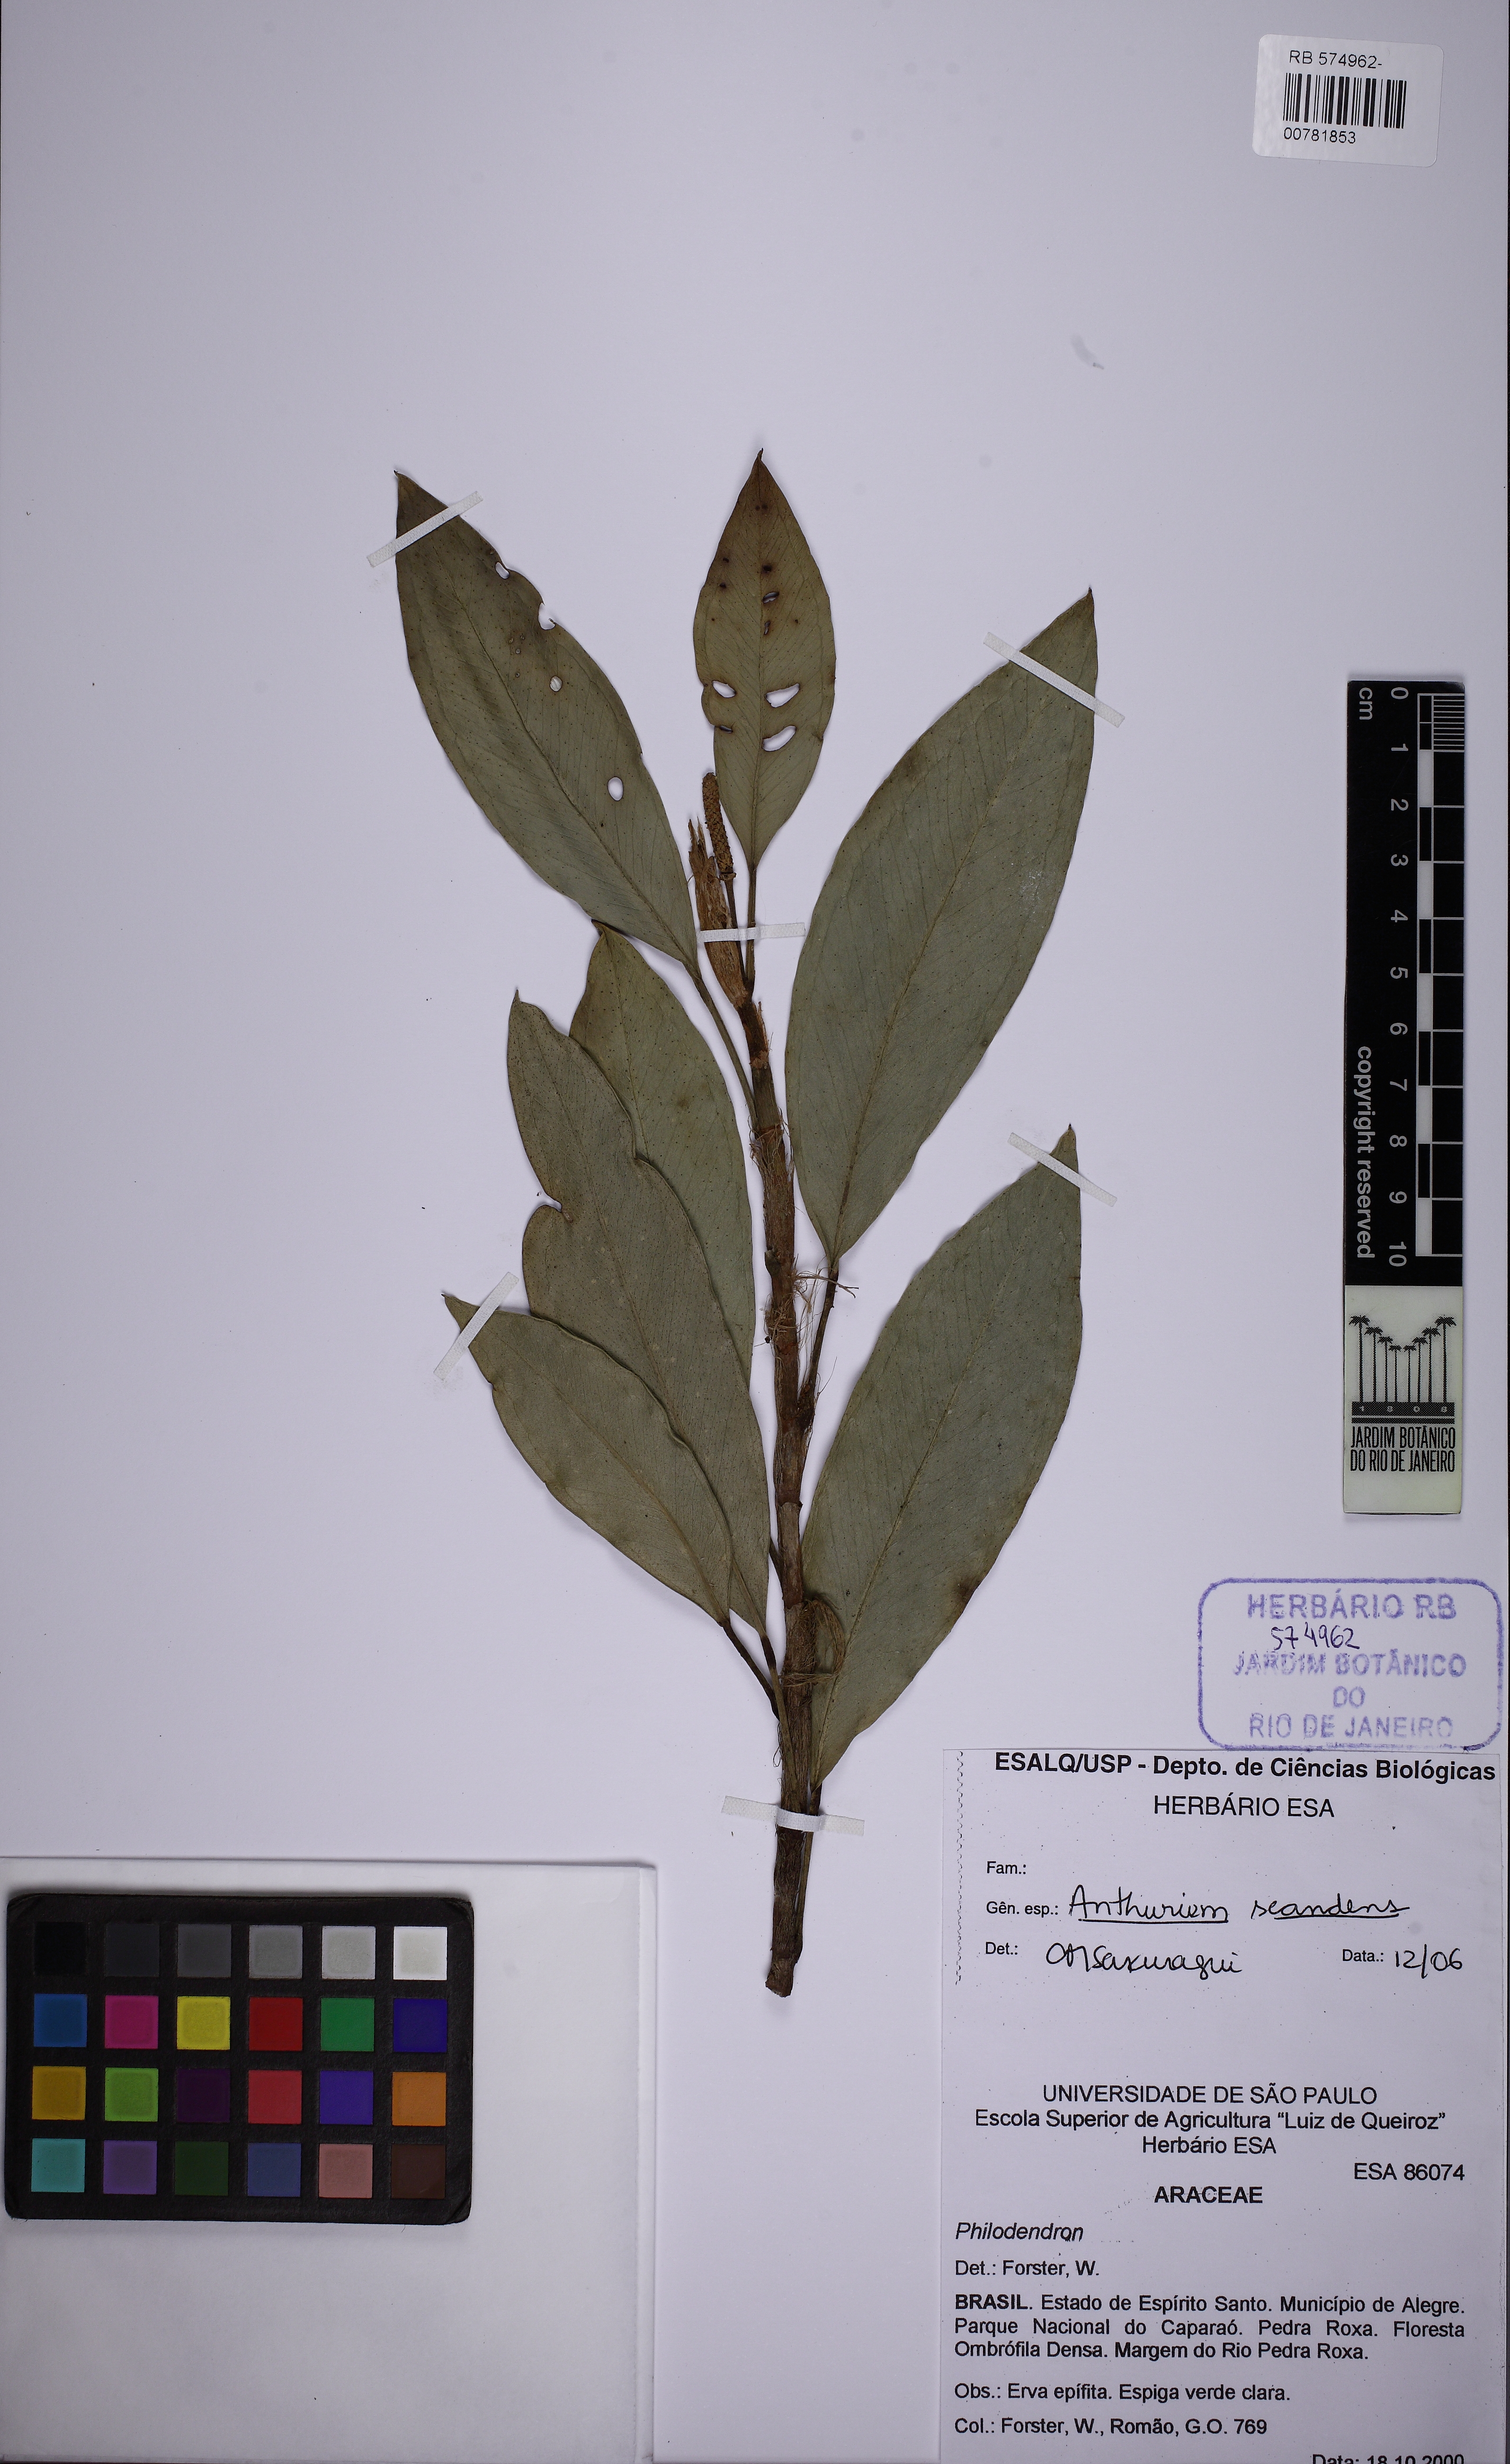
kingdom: Plantae
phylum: Tracheophyta
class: Liliopsida
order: Alismatales
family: Araceae
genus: Anthurium
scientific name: Anthurium scandens
